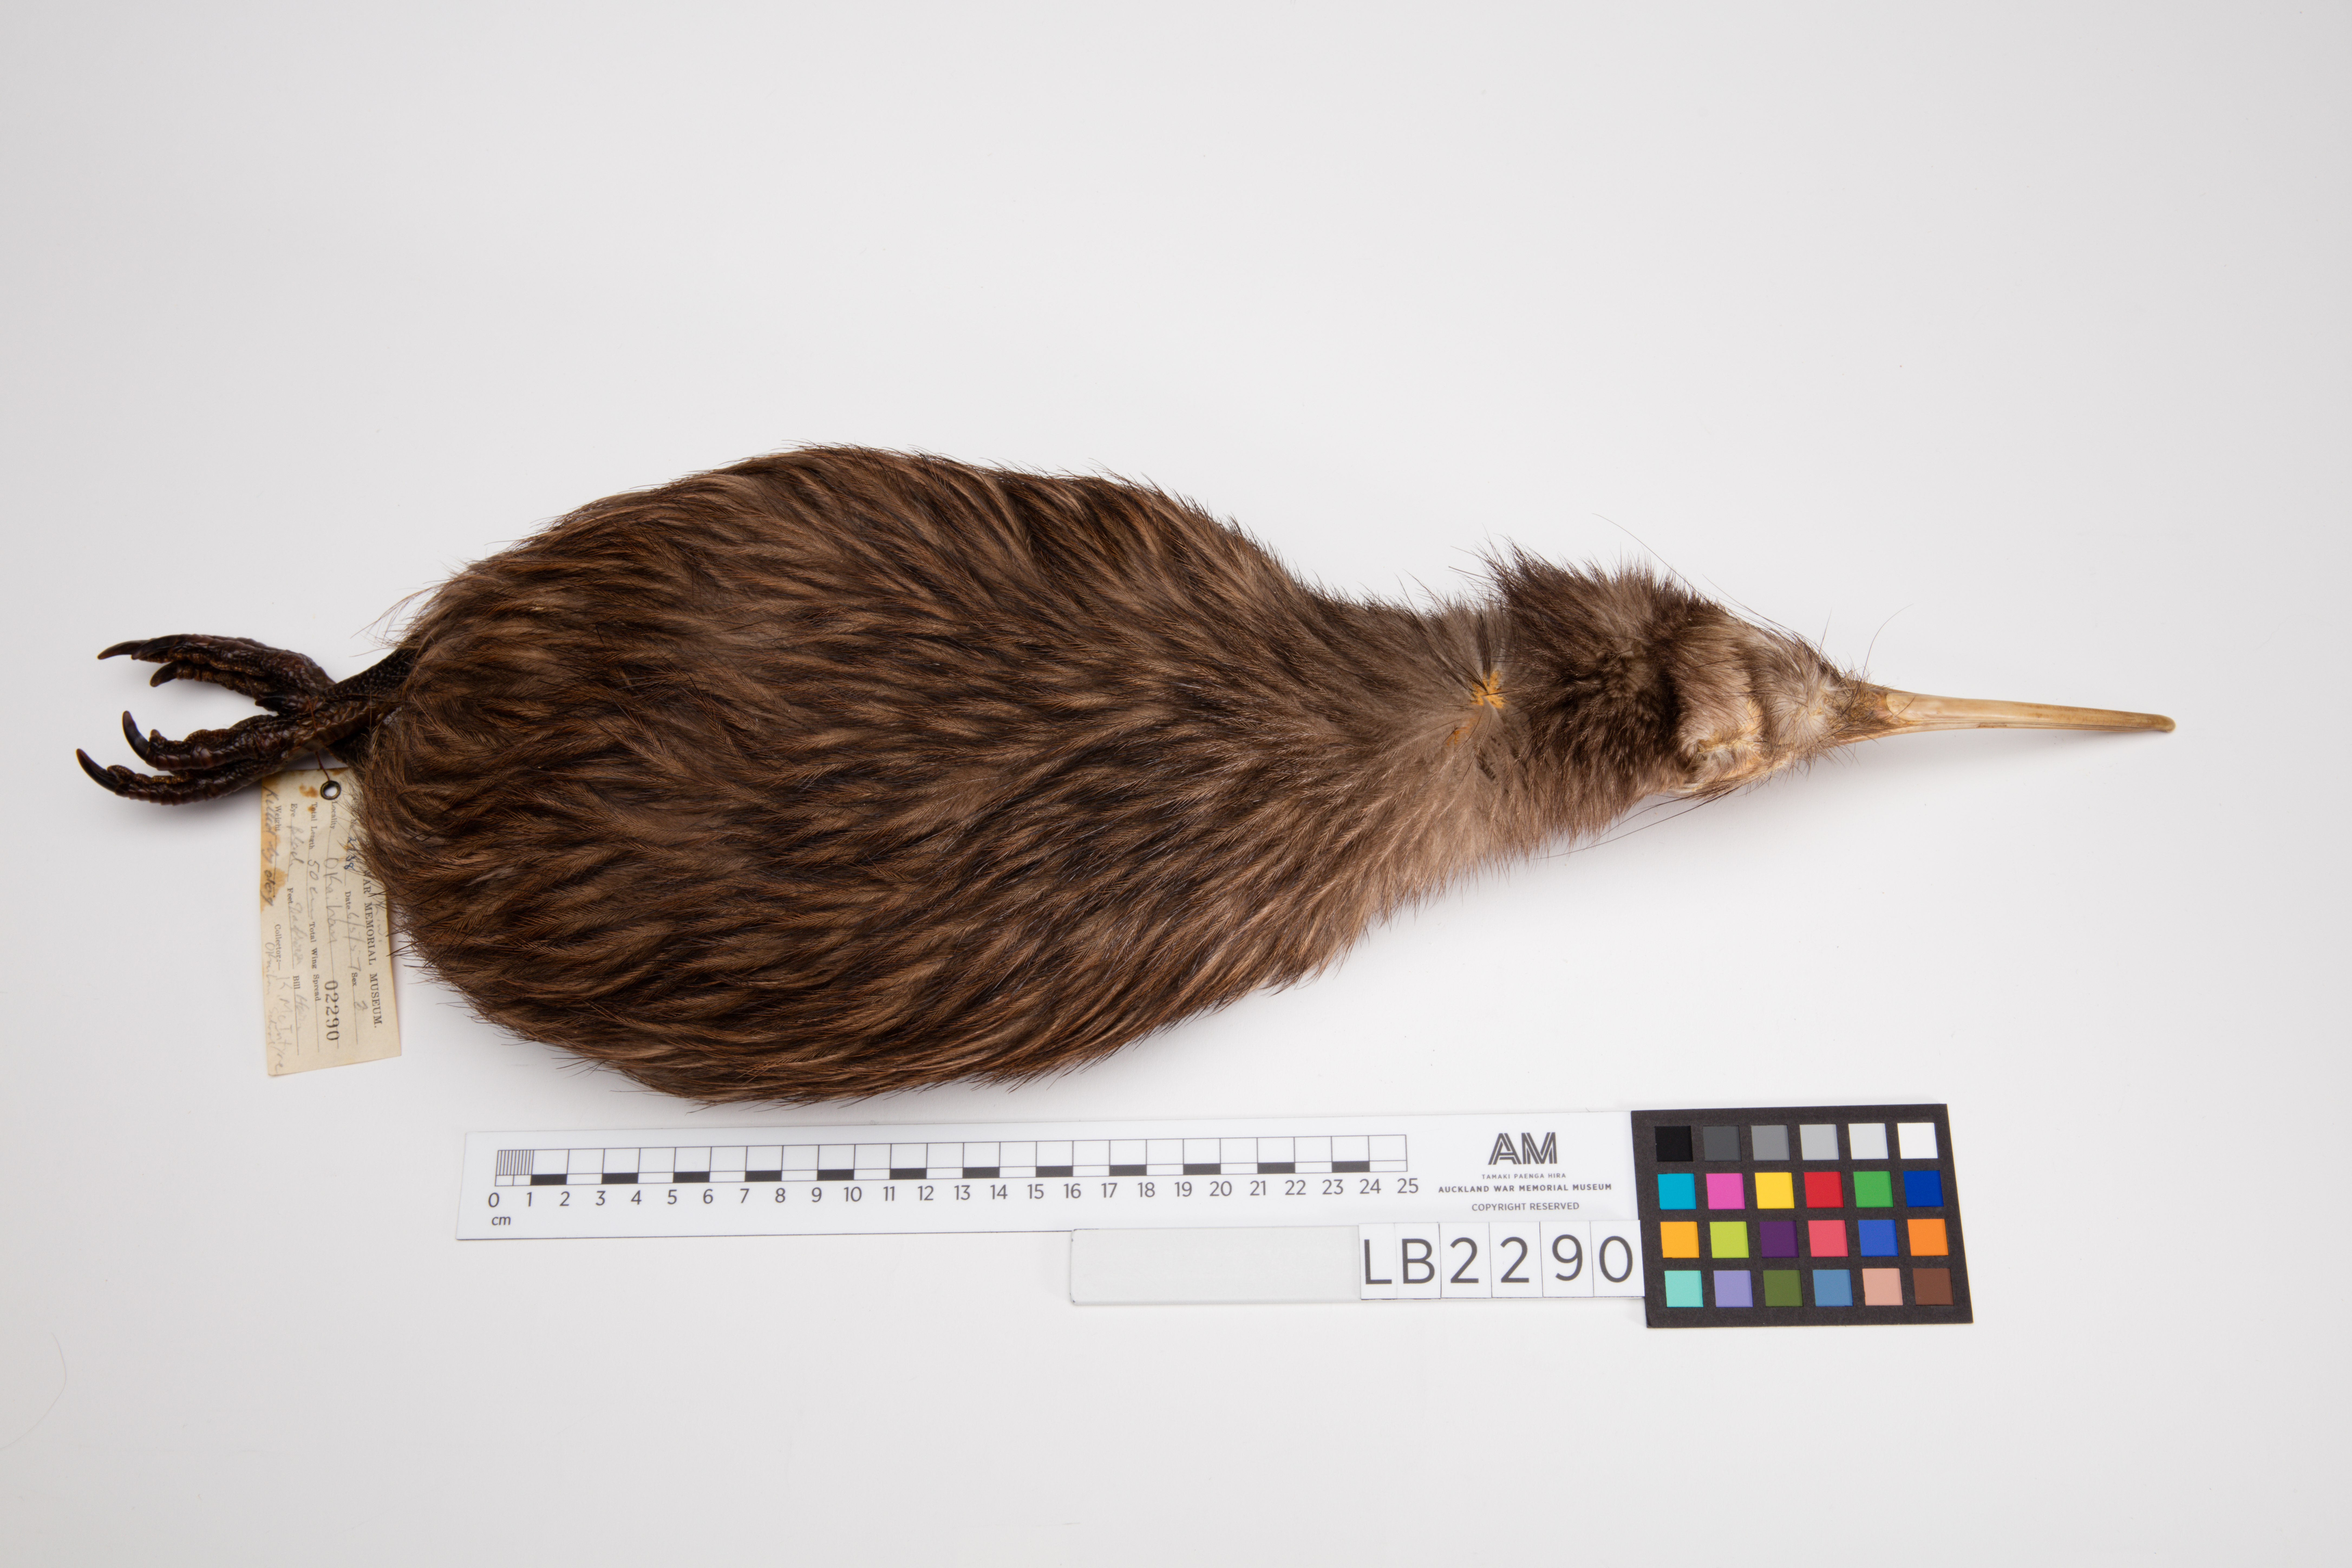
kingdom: Animalia
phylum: Chordata
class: Aves
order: Apterygiformes
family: Apterygidae
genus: Apteryx
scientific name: Apteryx mantelli
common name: North island brown kiwi
